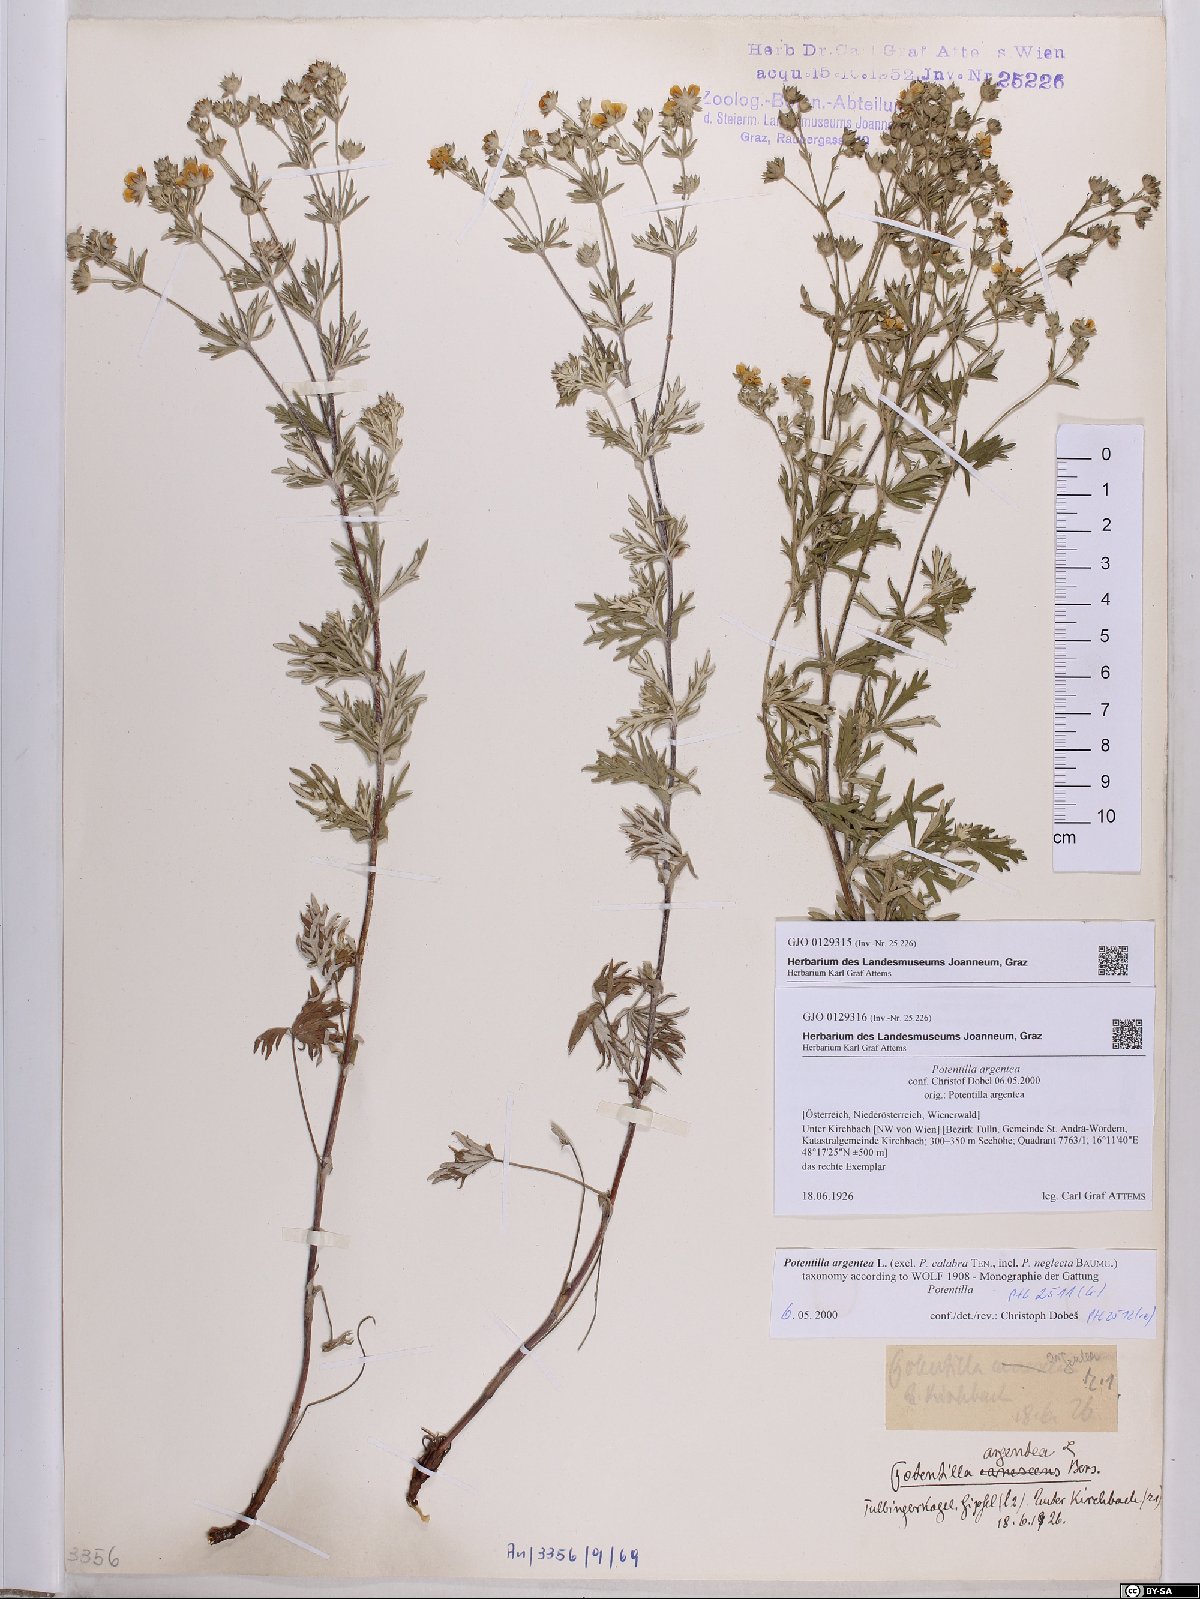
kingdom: Plantae
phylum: Tracheophyta
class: Magnoliopsida
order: Rosales
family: Rosaceae
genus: Potentilla
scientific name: Potentilla argentea
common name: Hoary cinquefoil
